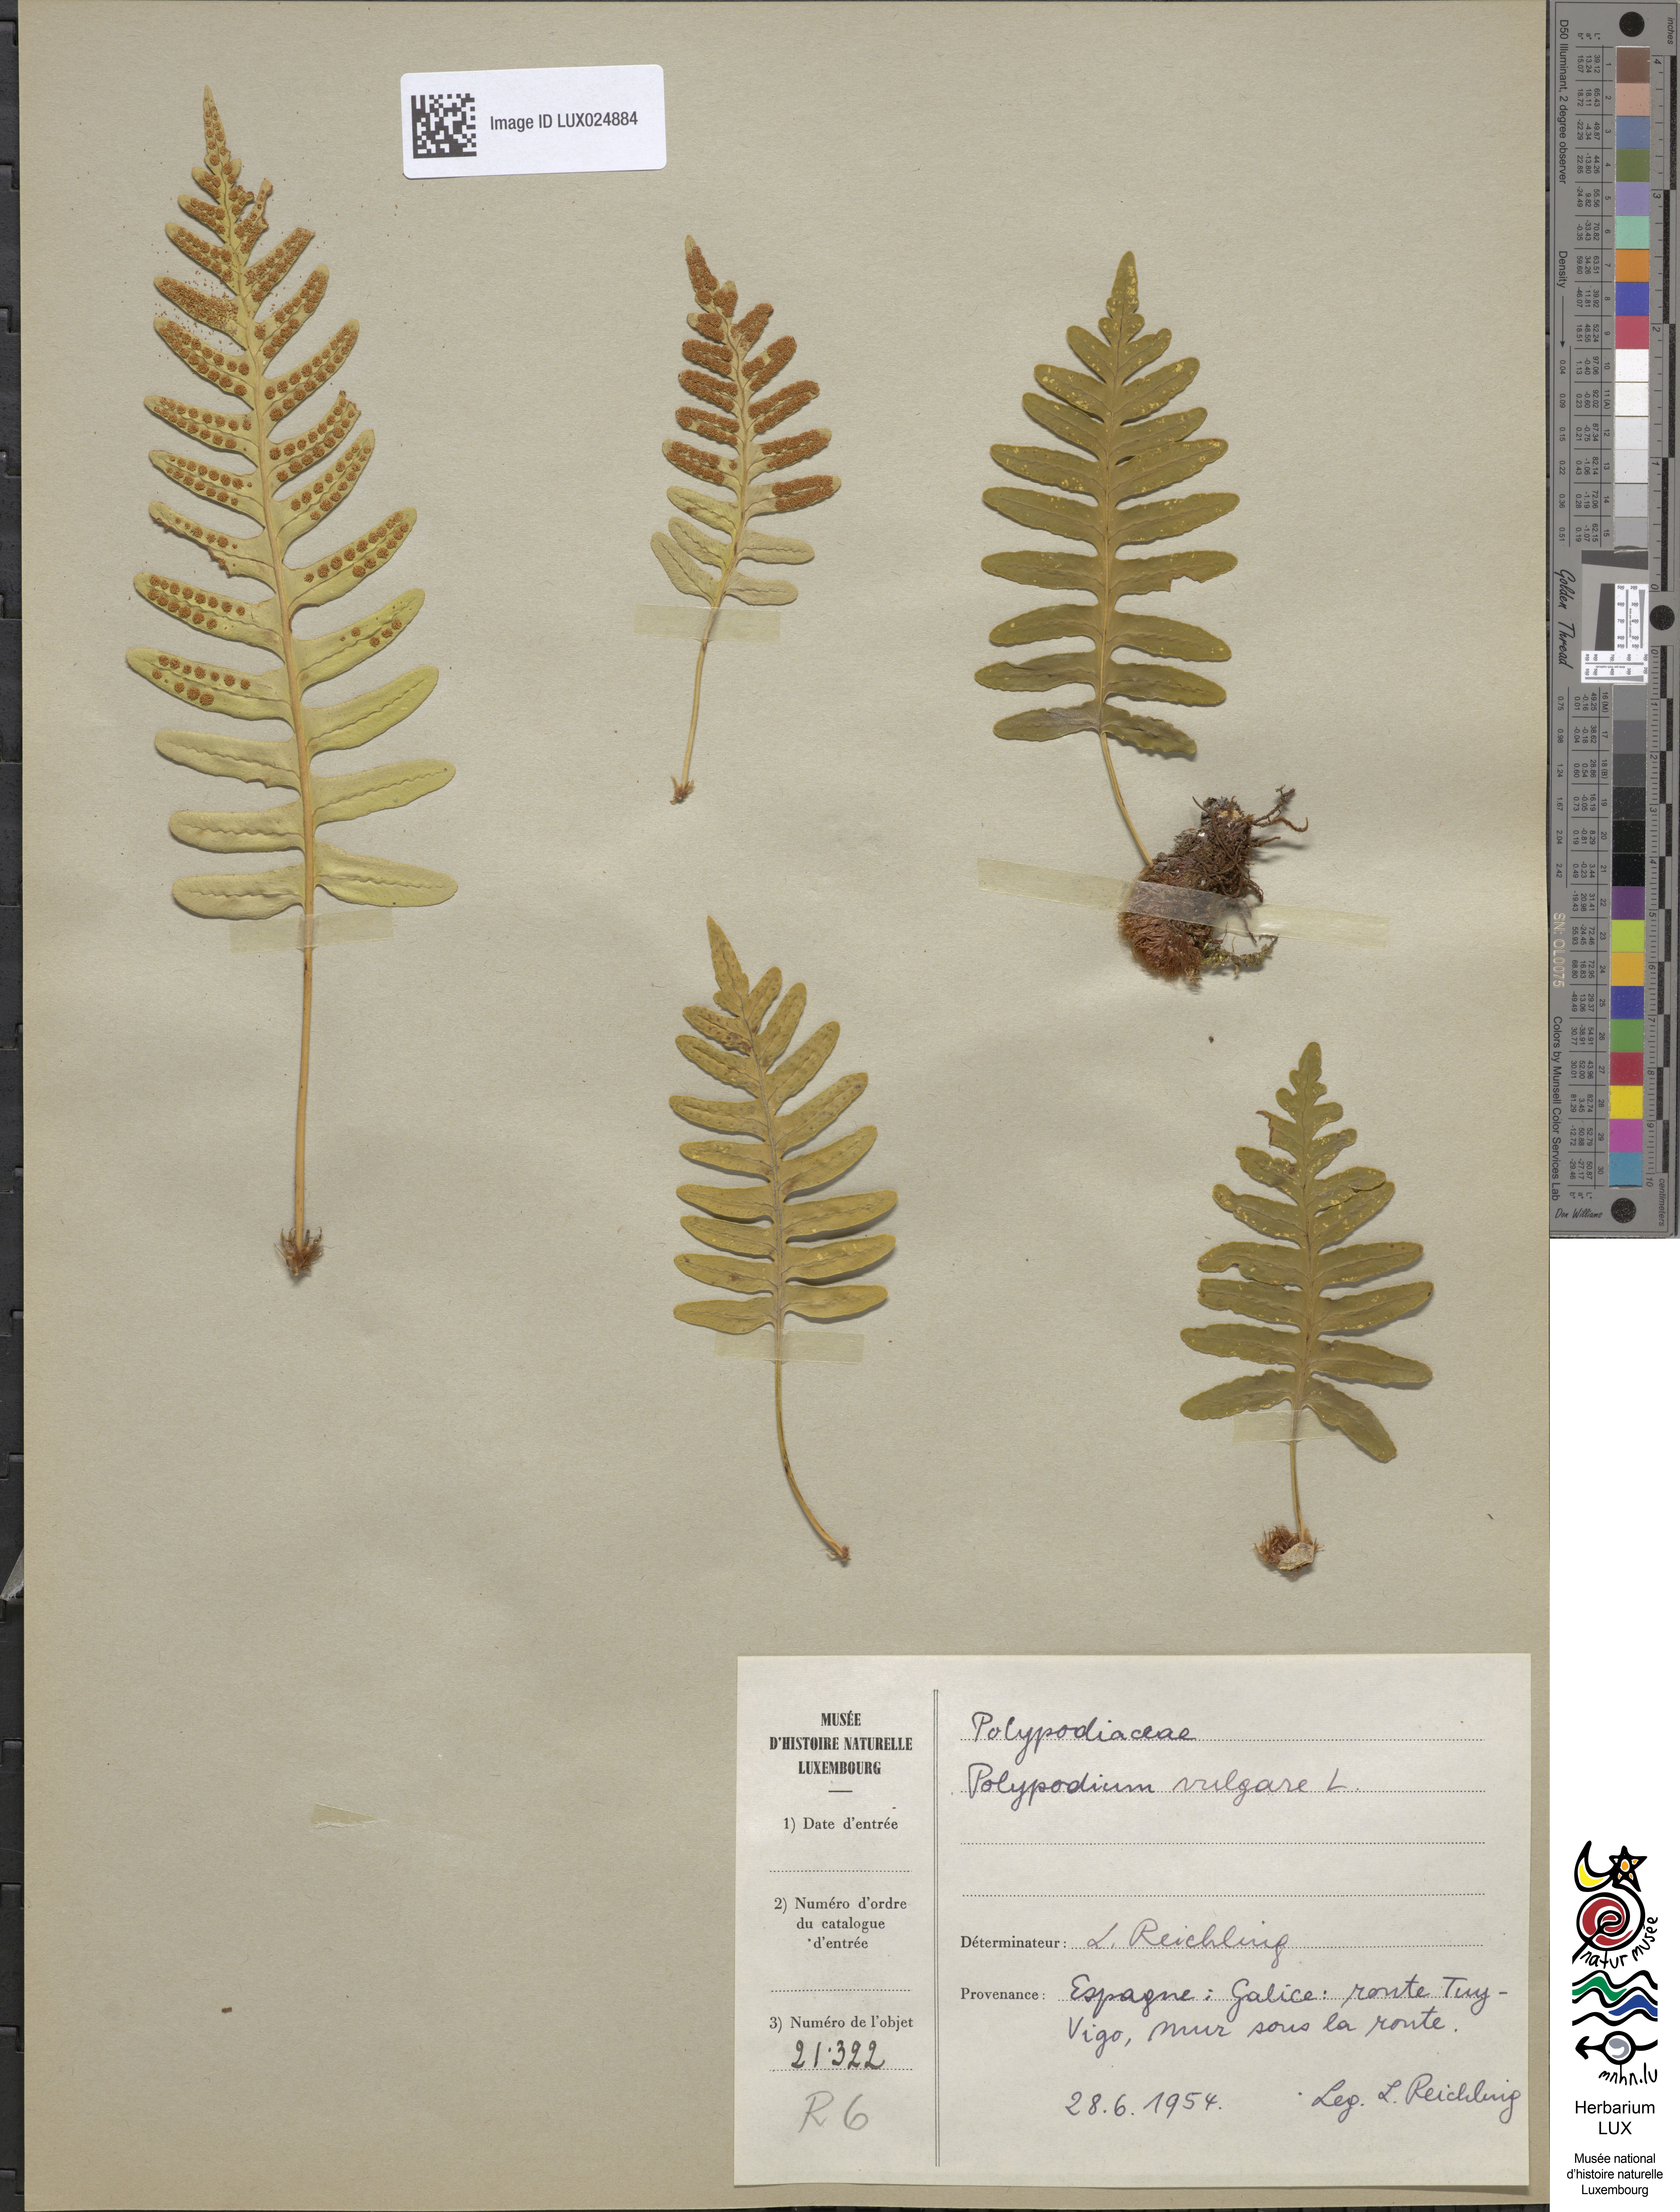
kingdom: Plantae
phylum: Tracheophyta
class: Polypodiopsida
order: Polypodiales
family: Polypodiaceae
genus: Polypodium
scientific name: Polypodium vulgare
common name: Common polypody
